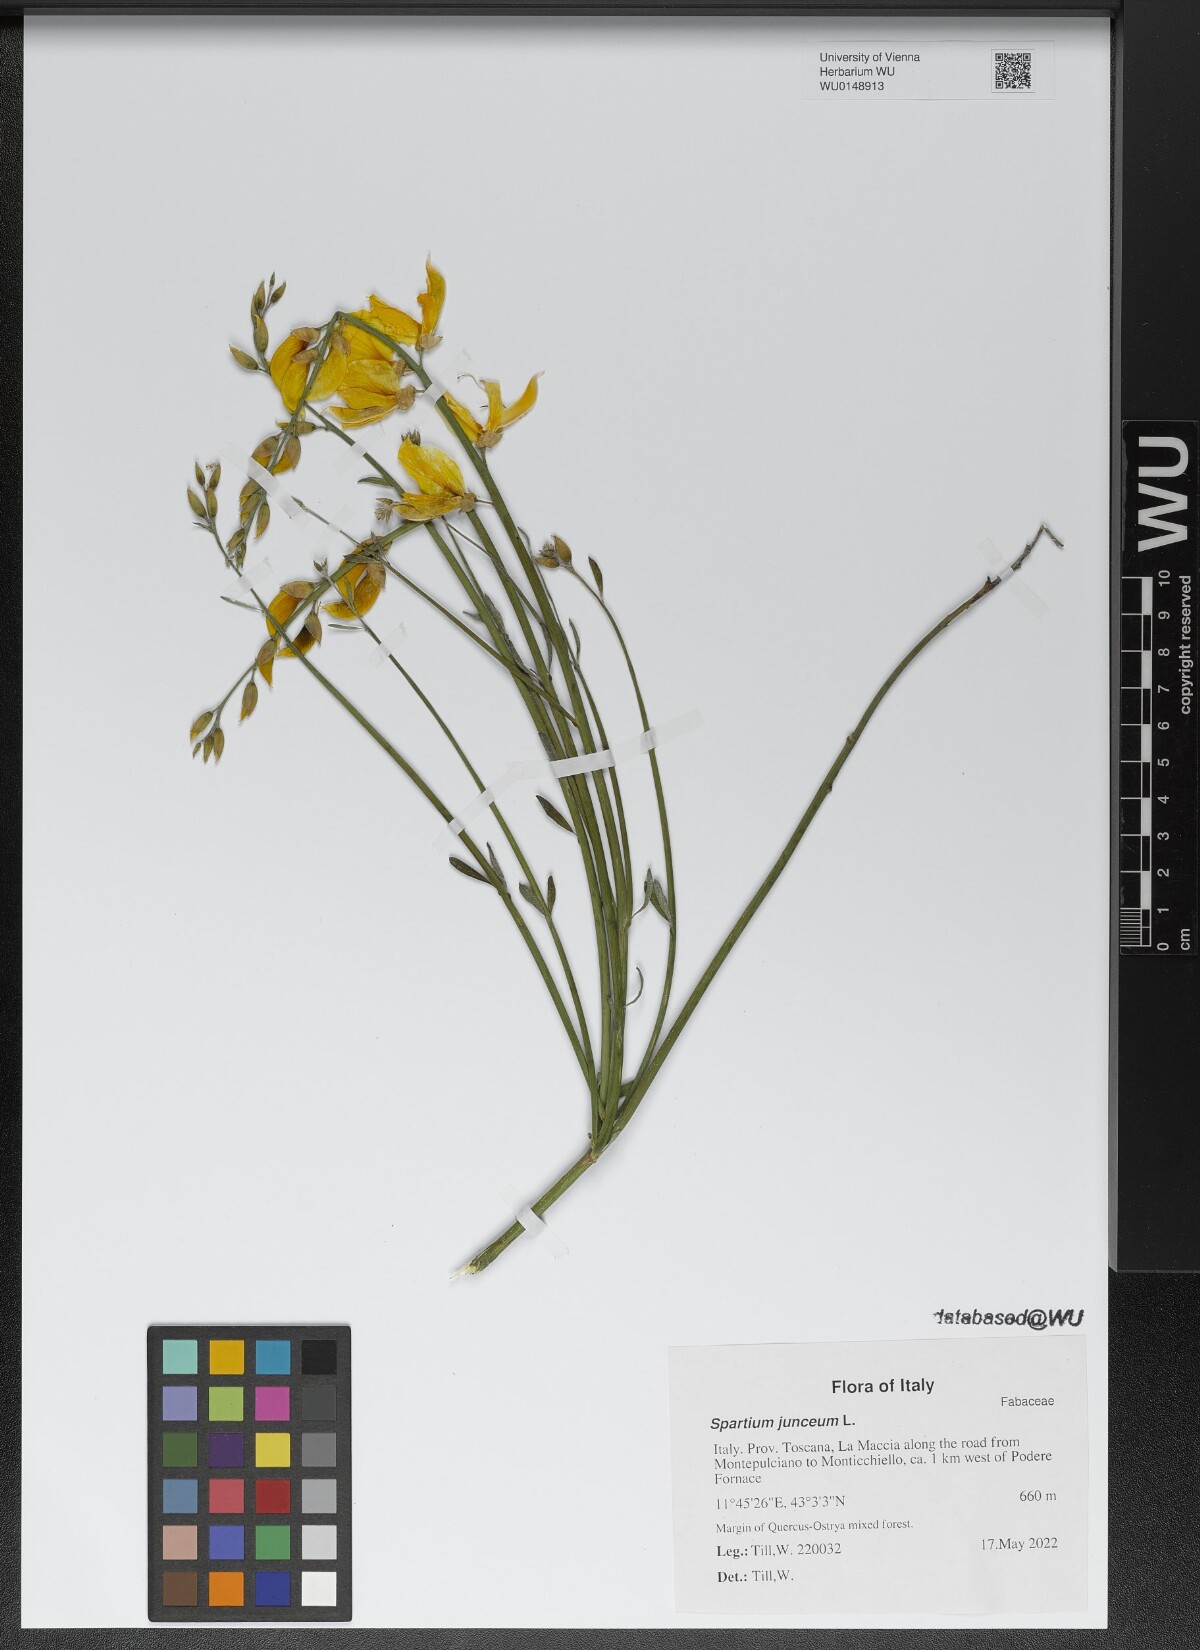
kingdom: Plantae
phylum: Tracheophyta
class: Magnoliopsida
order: Fabales
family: Fabaceae
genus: Spartium
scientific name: Spartium junceum
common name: Spanish broom
